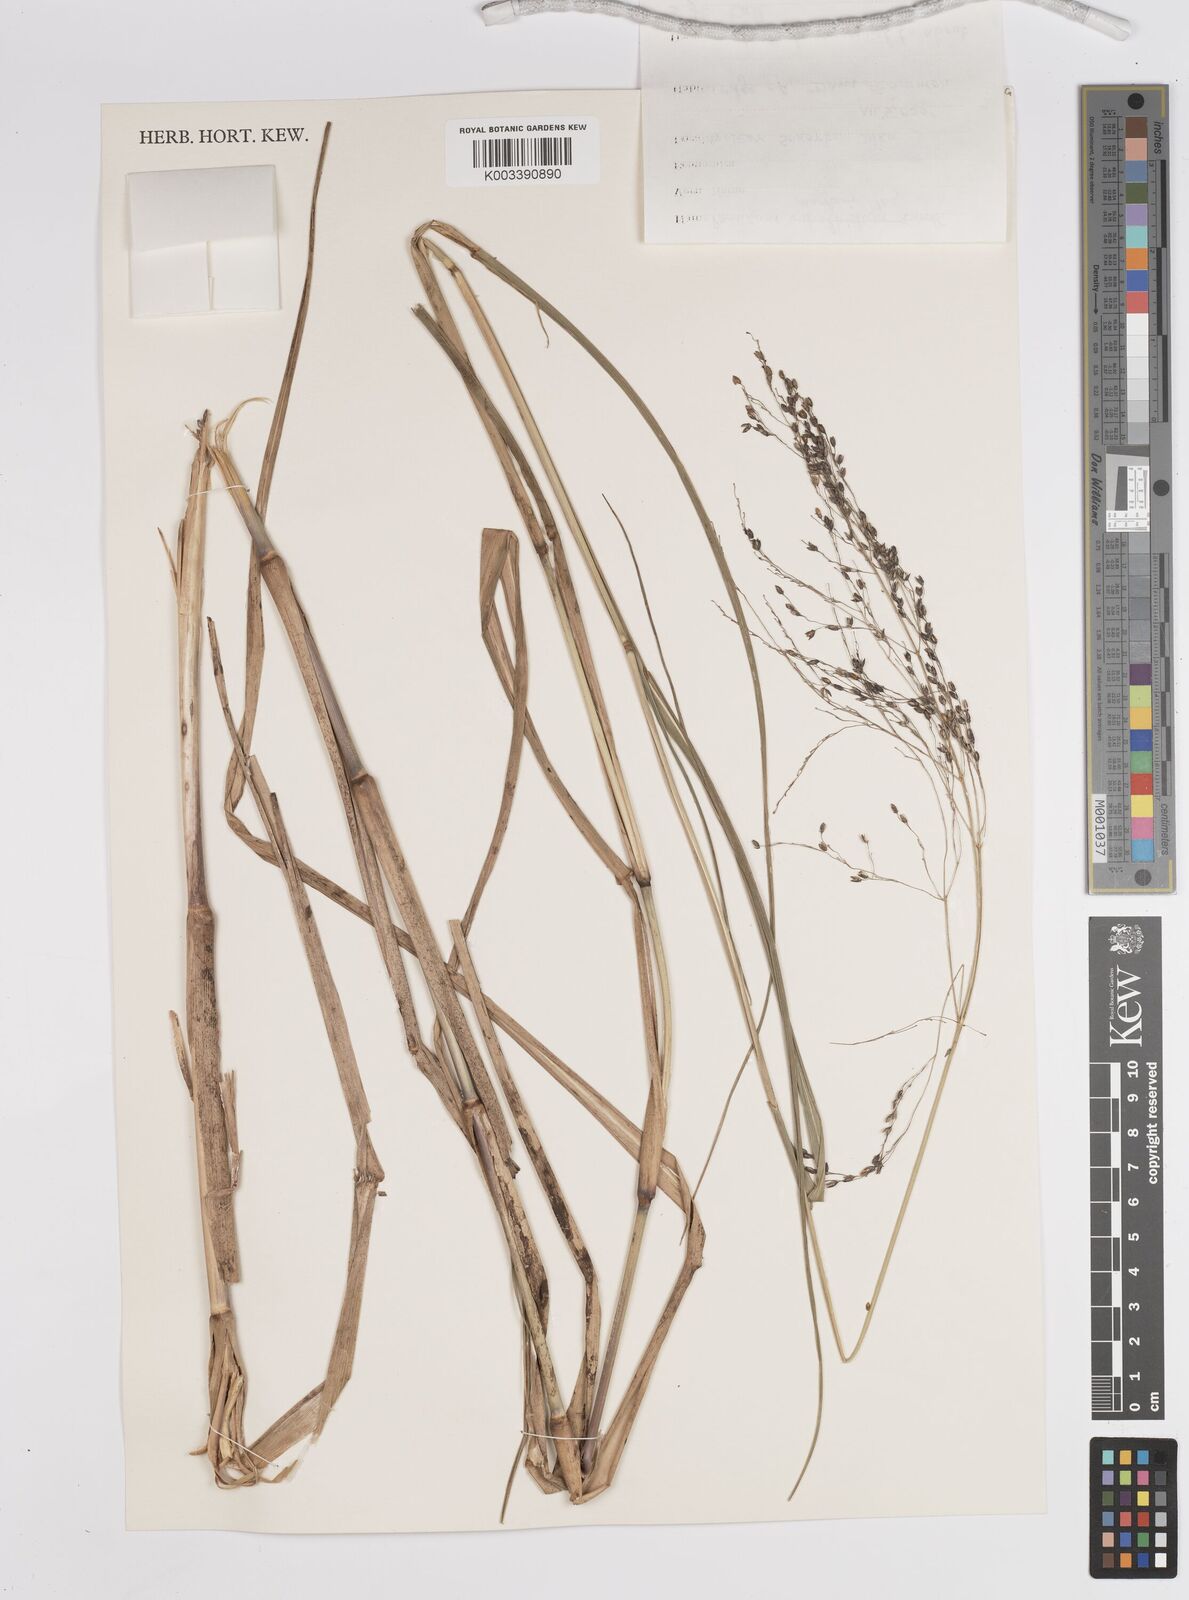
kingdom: Plantae
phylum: Tracheophyta
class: Liliopsida
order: Poales
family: Poaceae
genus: Panicum
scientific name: Panicum merkeri
